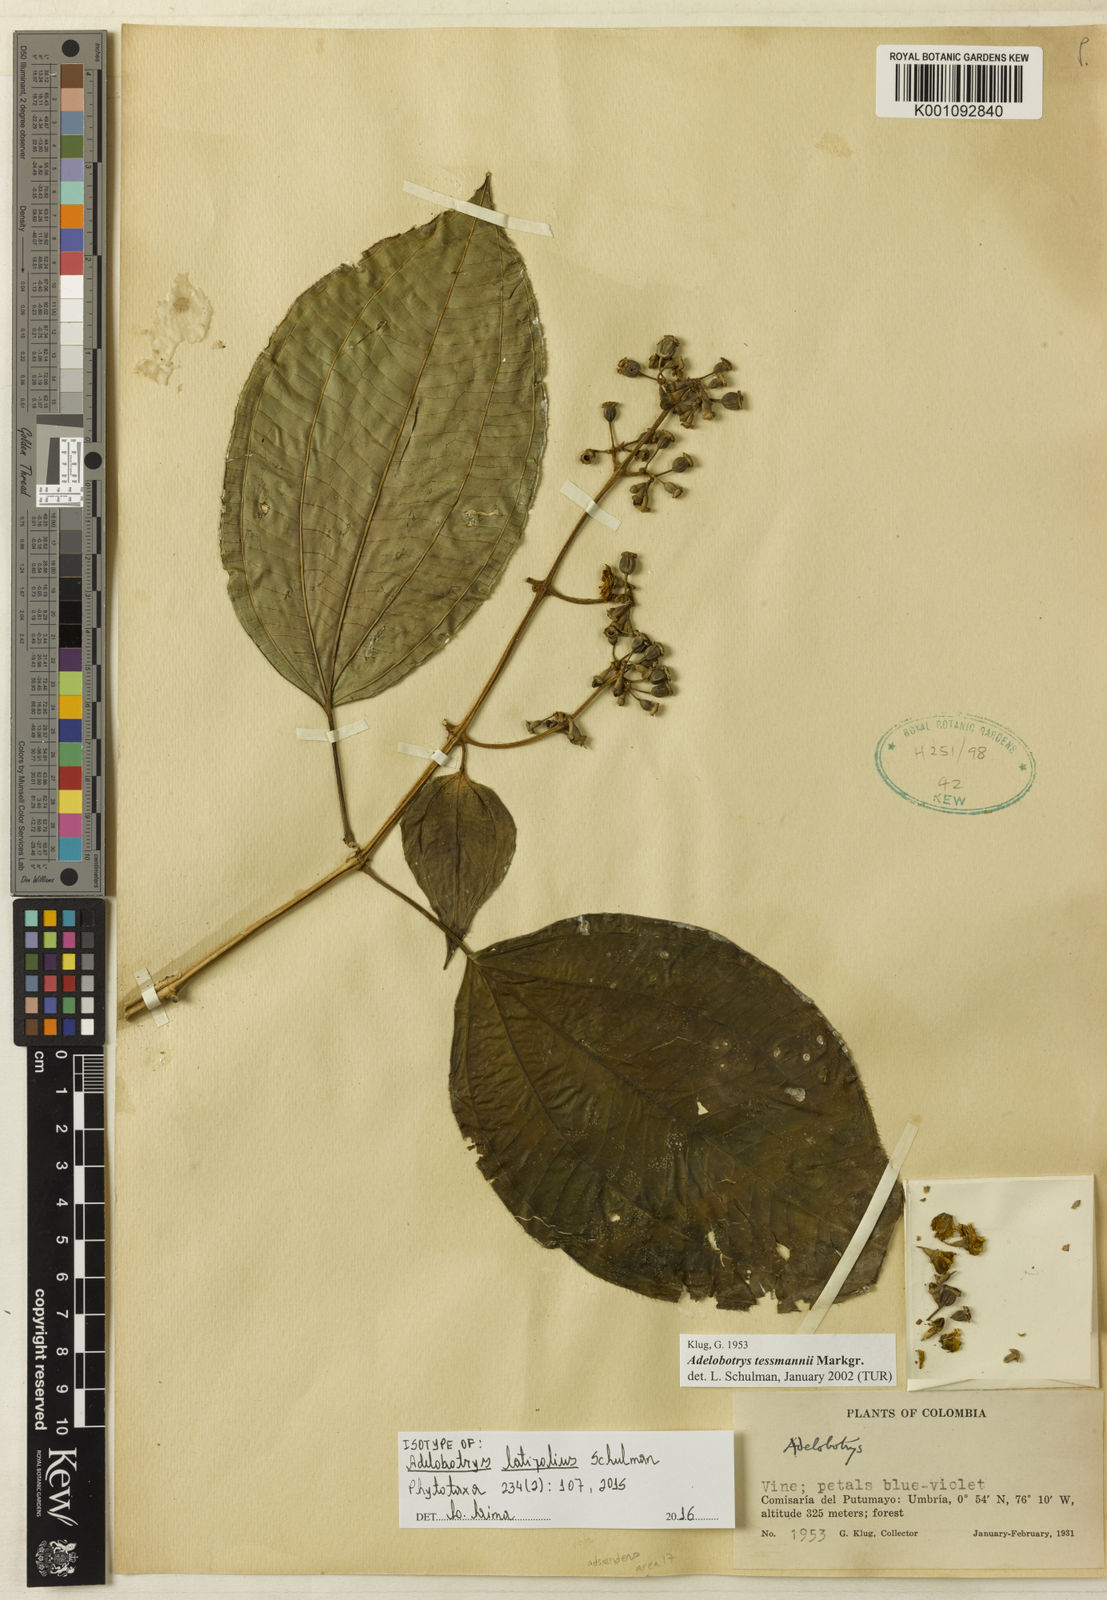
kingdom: Plantae
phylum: Tracheophyta
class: Magnoliopsida
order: Myrtales
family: Melastomataceae
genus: Adelobotrys
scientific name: Adelobotrys latifolius
